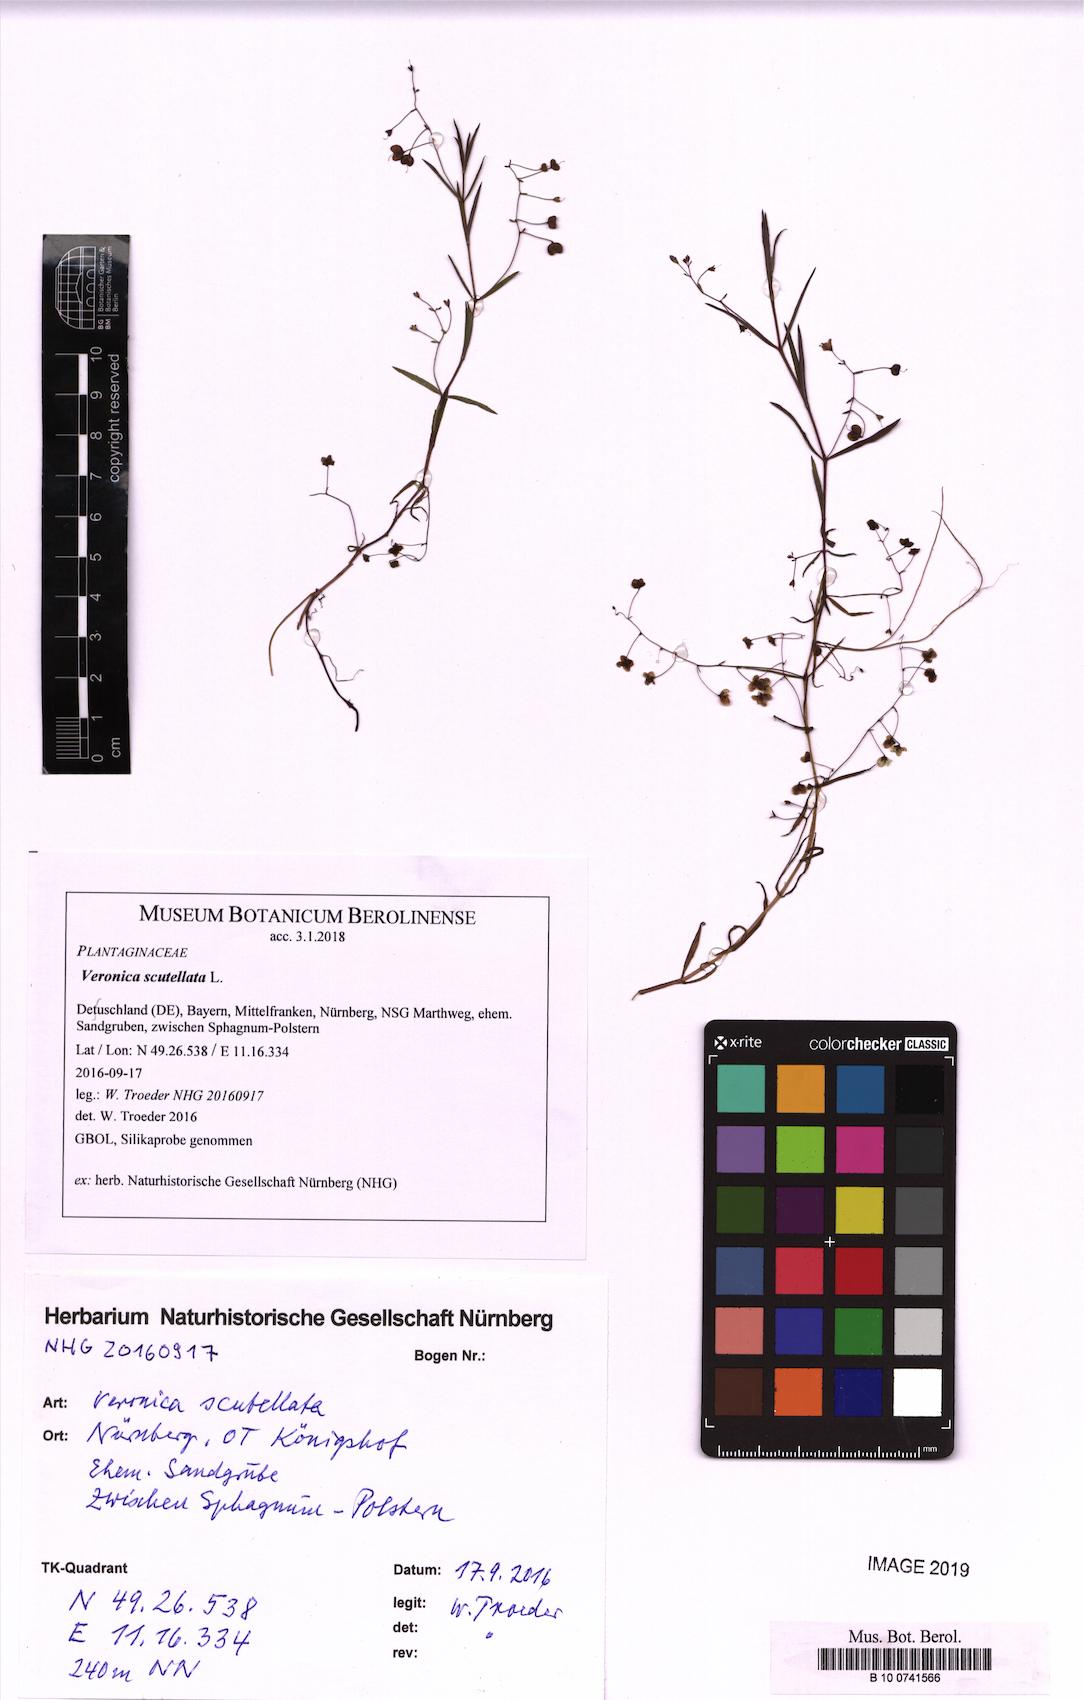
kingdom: Plantae
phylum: Tracheophyta
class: Magnoliopsida
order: Lamiales
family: Plantaginaceae
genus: Veronica
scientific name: Veronica scutellata
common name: Marsh speedwell
